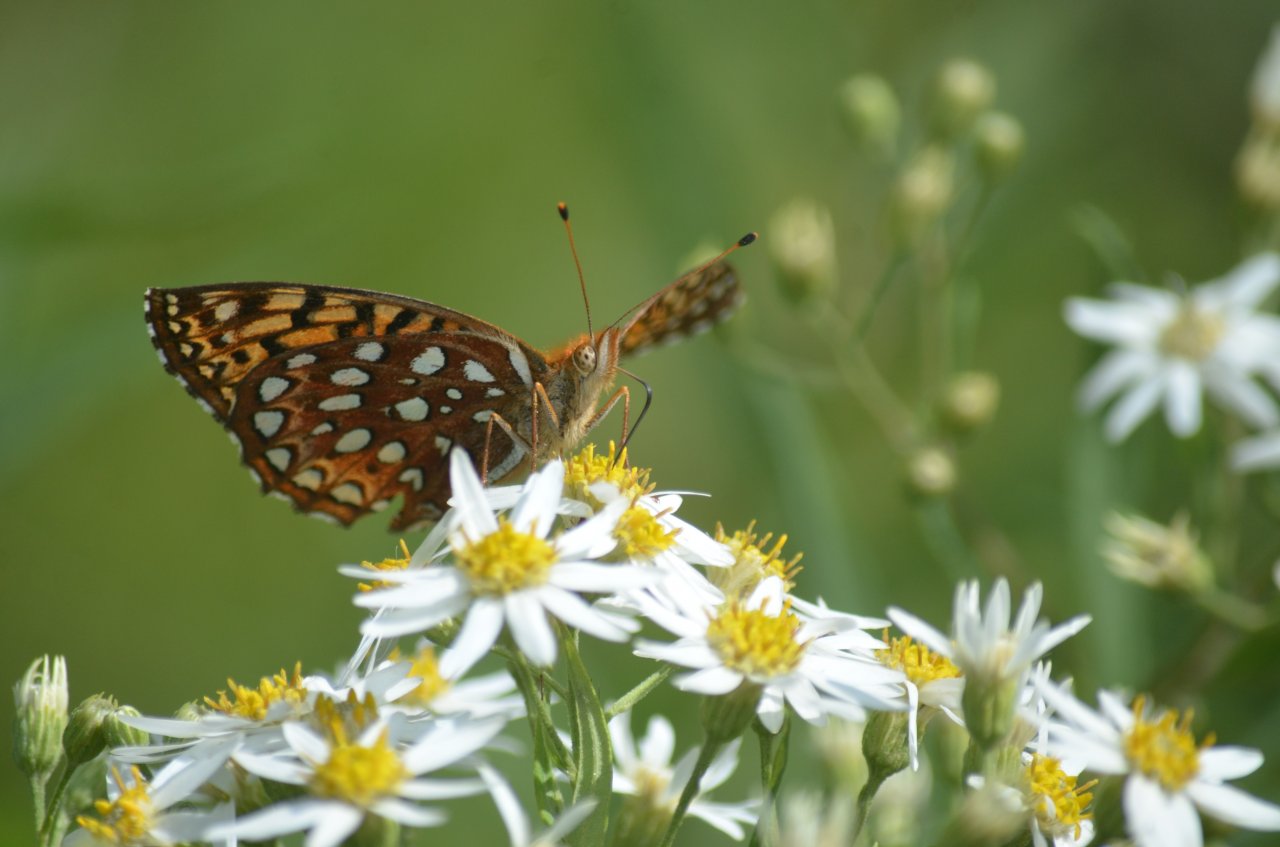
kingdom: Animalia
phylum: Arthropoda
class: Insecta
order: Lepidoptera
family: Nymphalidae
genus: Speyeria
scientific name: Speyeria aphrodite
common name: Aphrodite Fritillary
